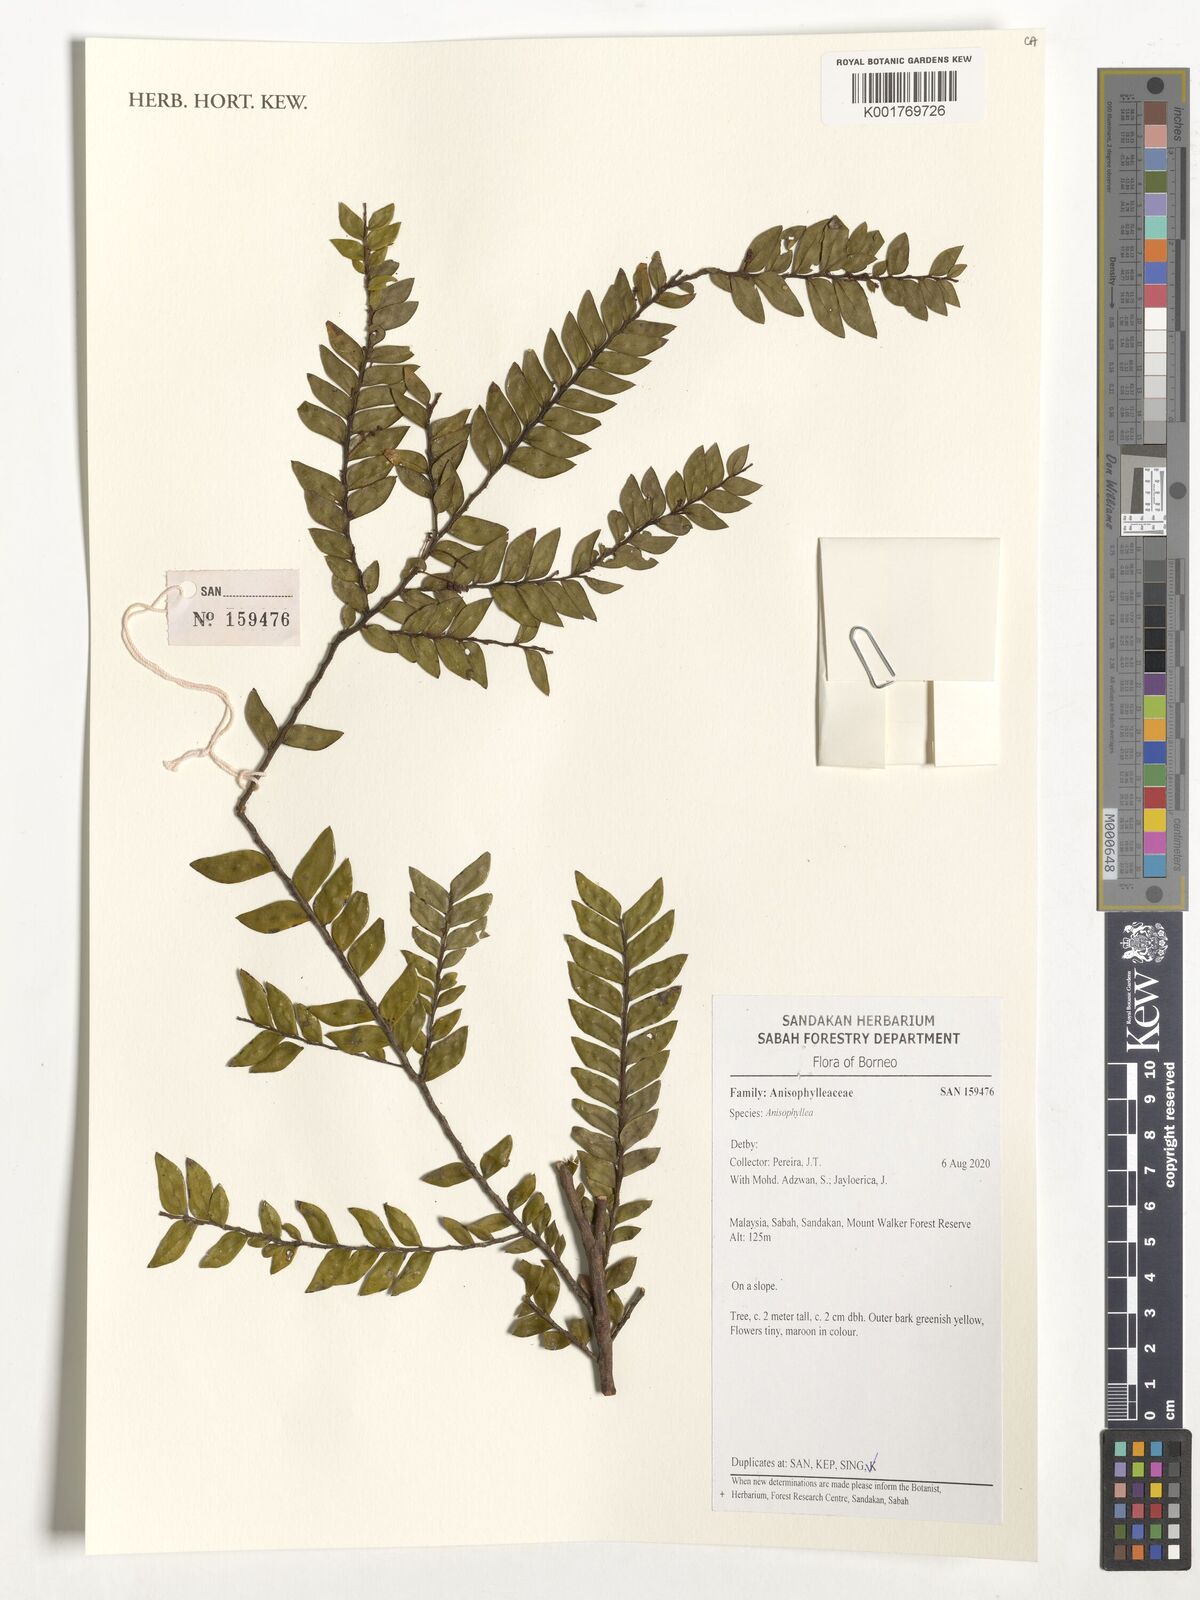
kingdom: Plantae
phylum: Tracheophyta
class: Magnoliopsida
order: Cucurbitales
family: Anisophylleaceae
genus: Anisophyllea
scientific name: Anisophyllea
